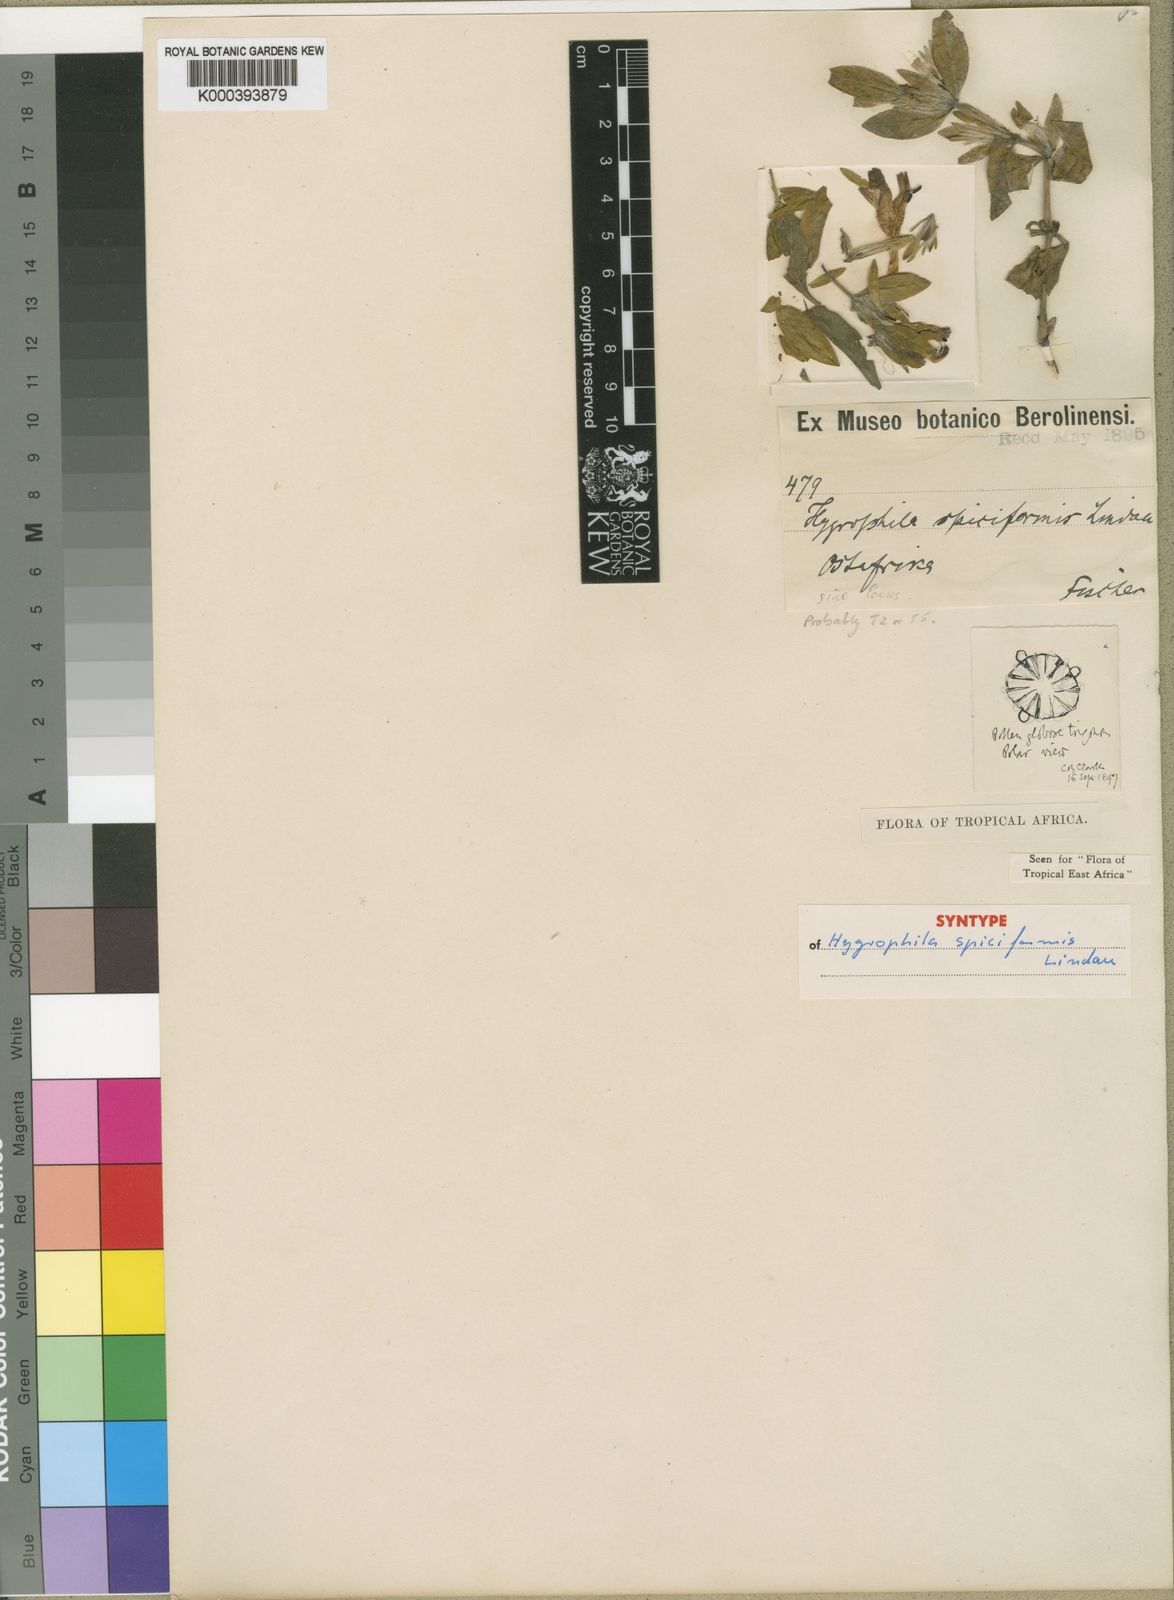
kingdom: Plantae
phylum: Tracheophyta
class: Magnoliopsida
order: Lamiales
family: Acanthaceae
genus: Hygrophila
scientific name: Hygrophila spiciformis
